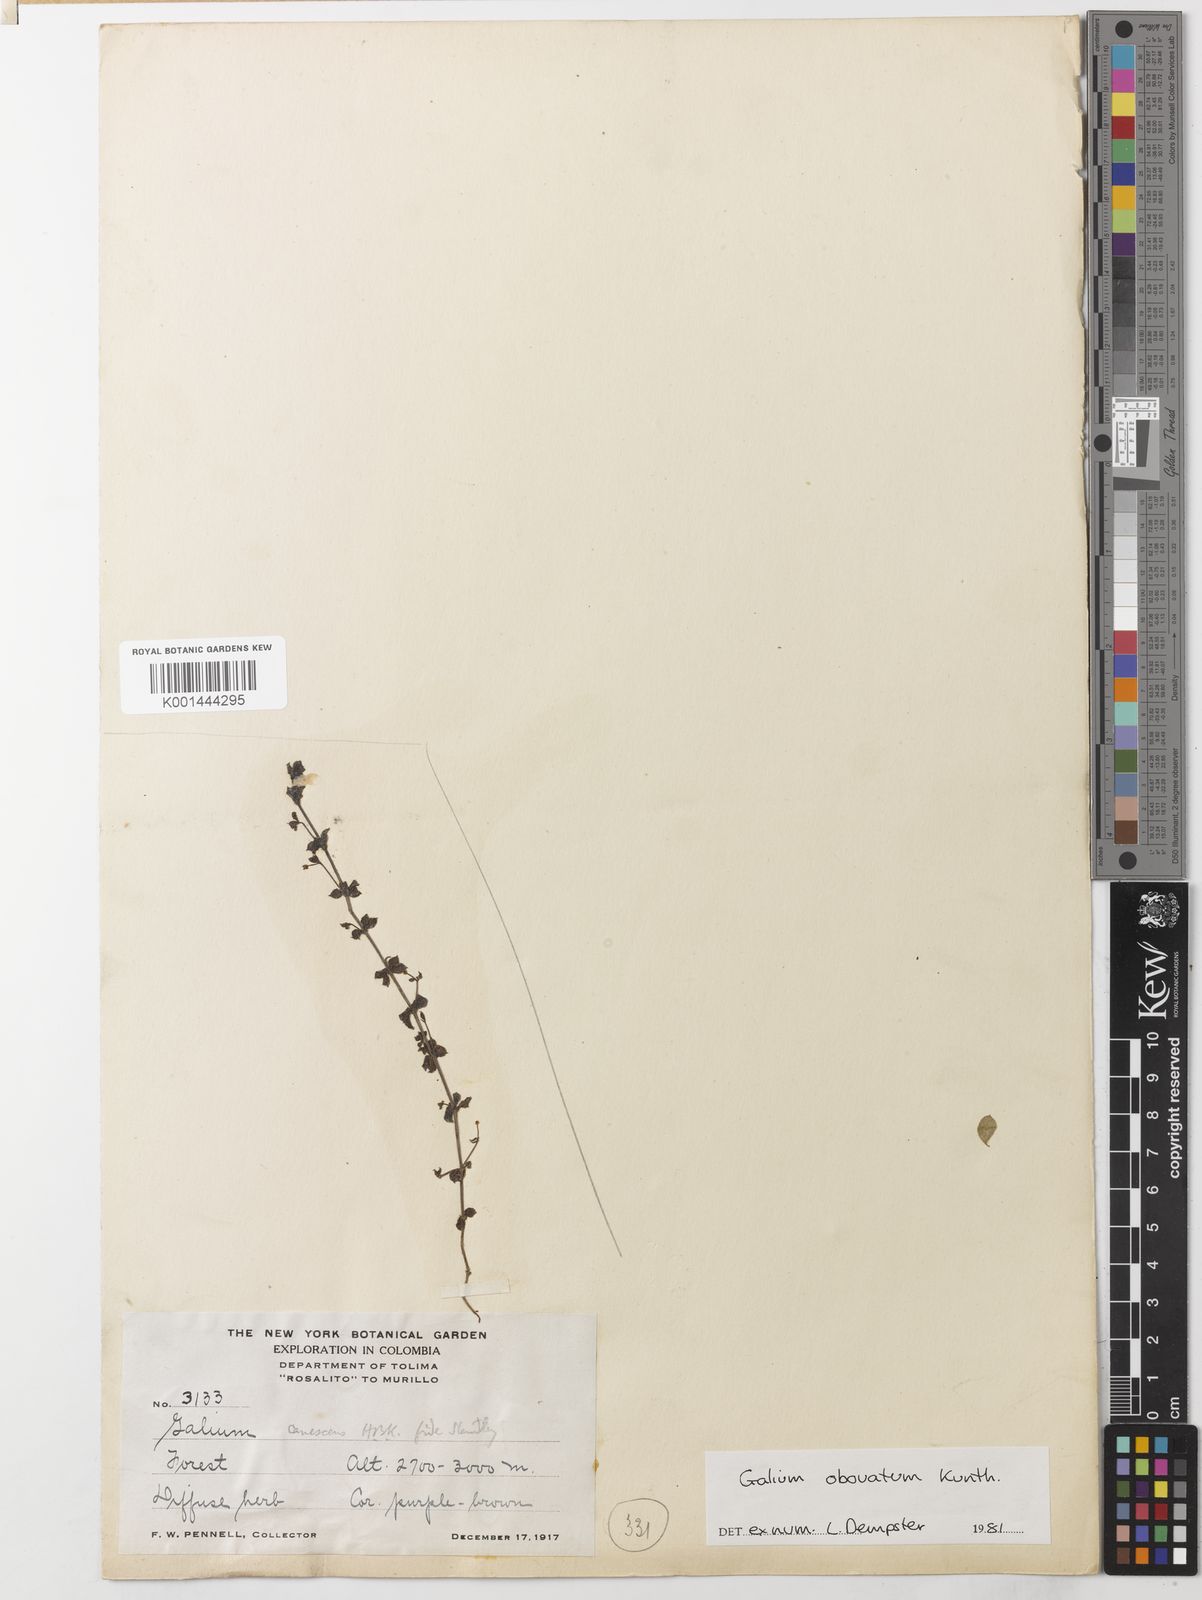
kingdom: Plantae
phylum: Tracheophyta
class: Magnoliopsida
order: Gentianales
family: Rubiaceae
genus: Galium
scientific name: Galium obovatum
